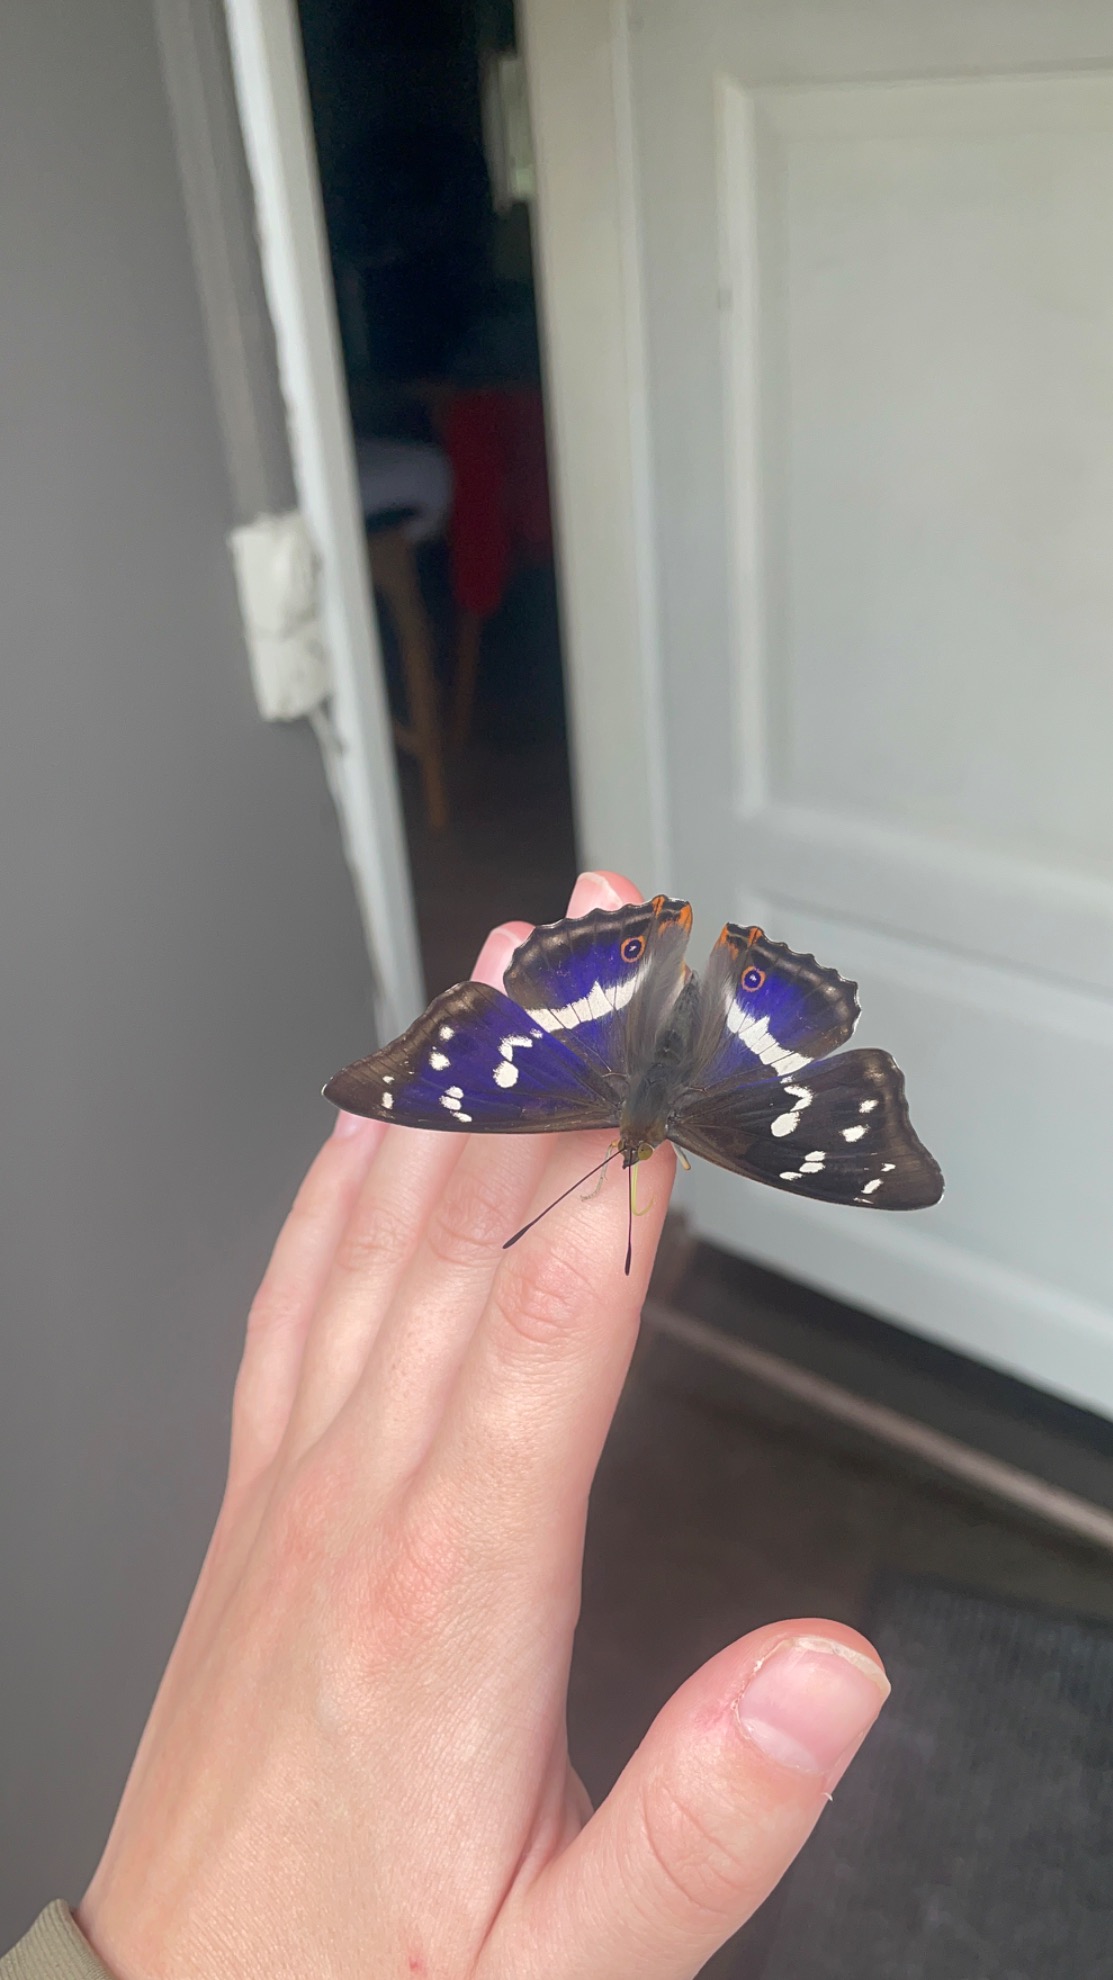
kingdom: Animalia
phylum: Arthropoda
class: Insecta
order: Lepidoptera
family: Nymphalidae
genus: Apatura
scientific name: Apatura iris
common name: Iris
